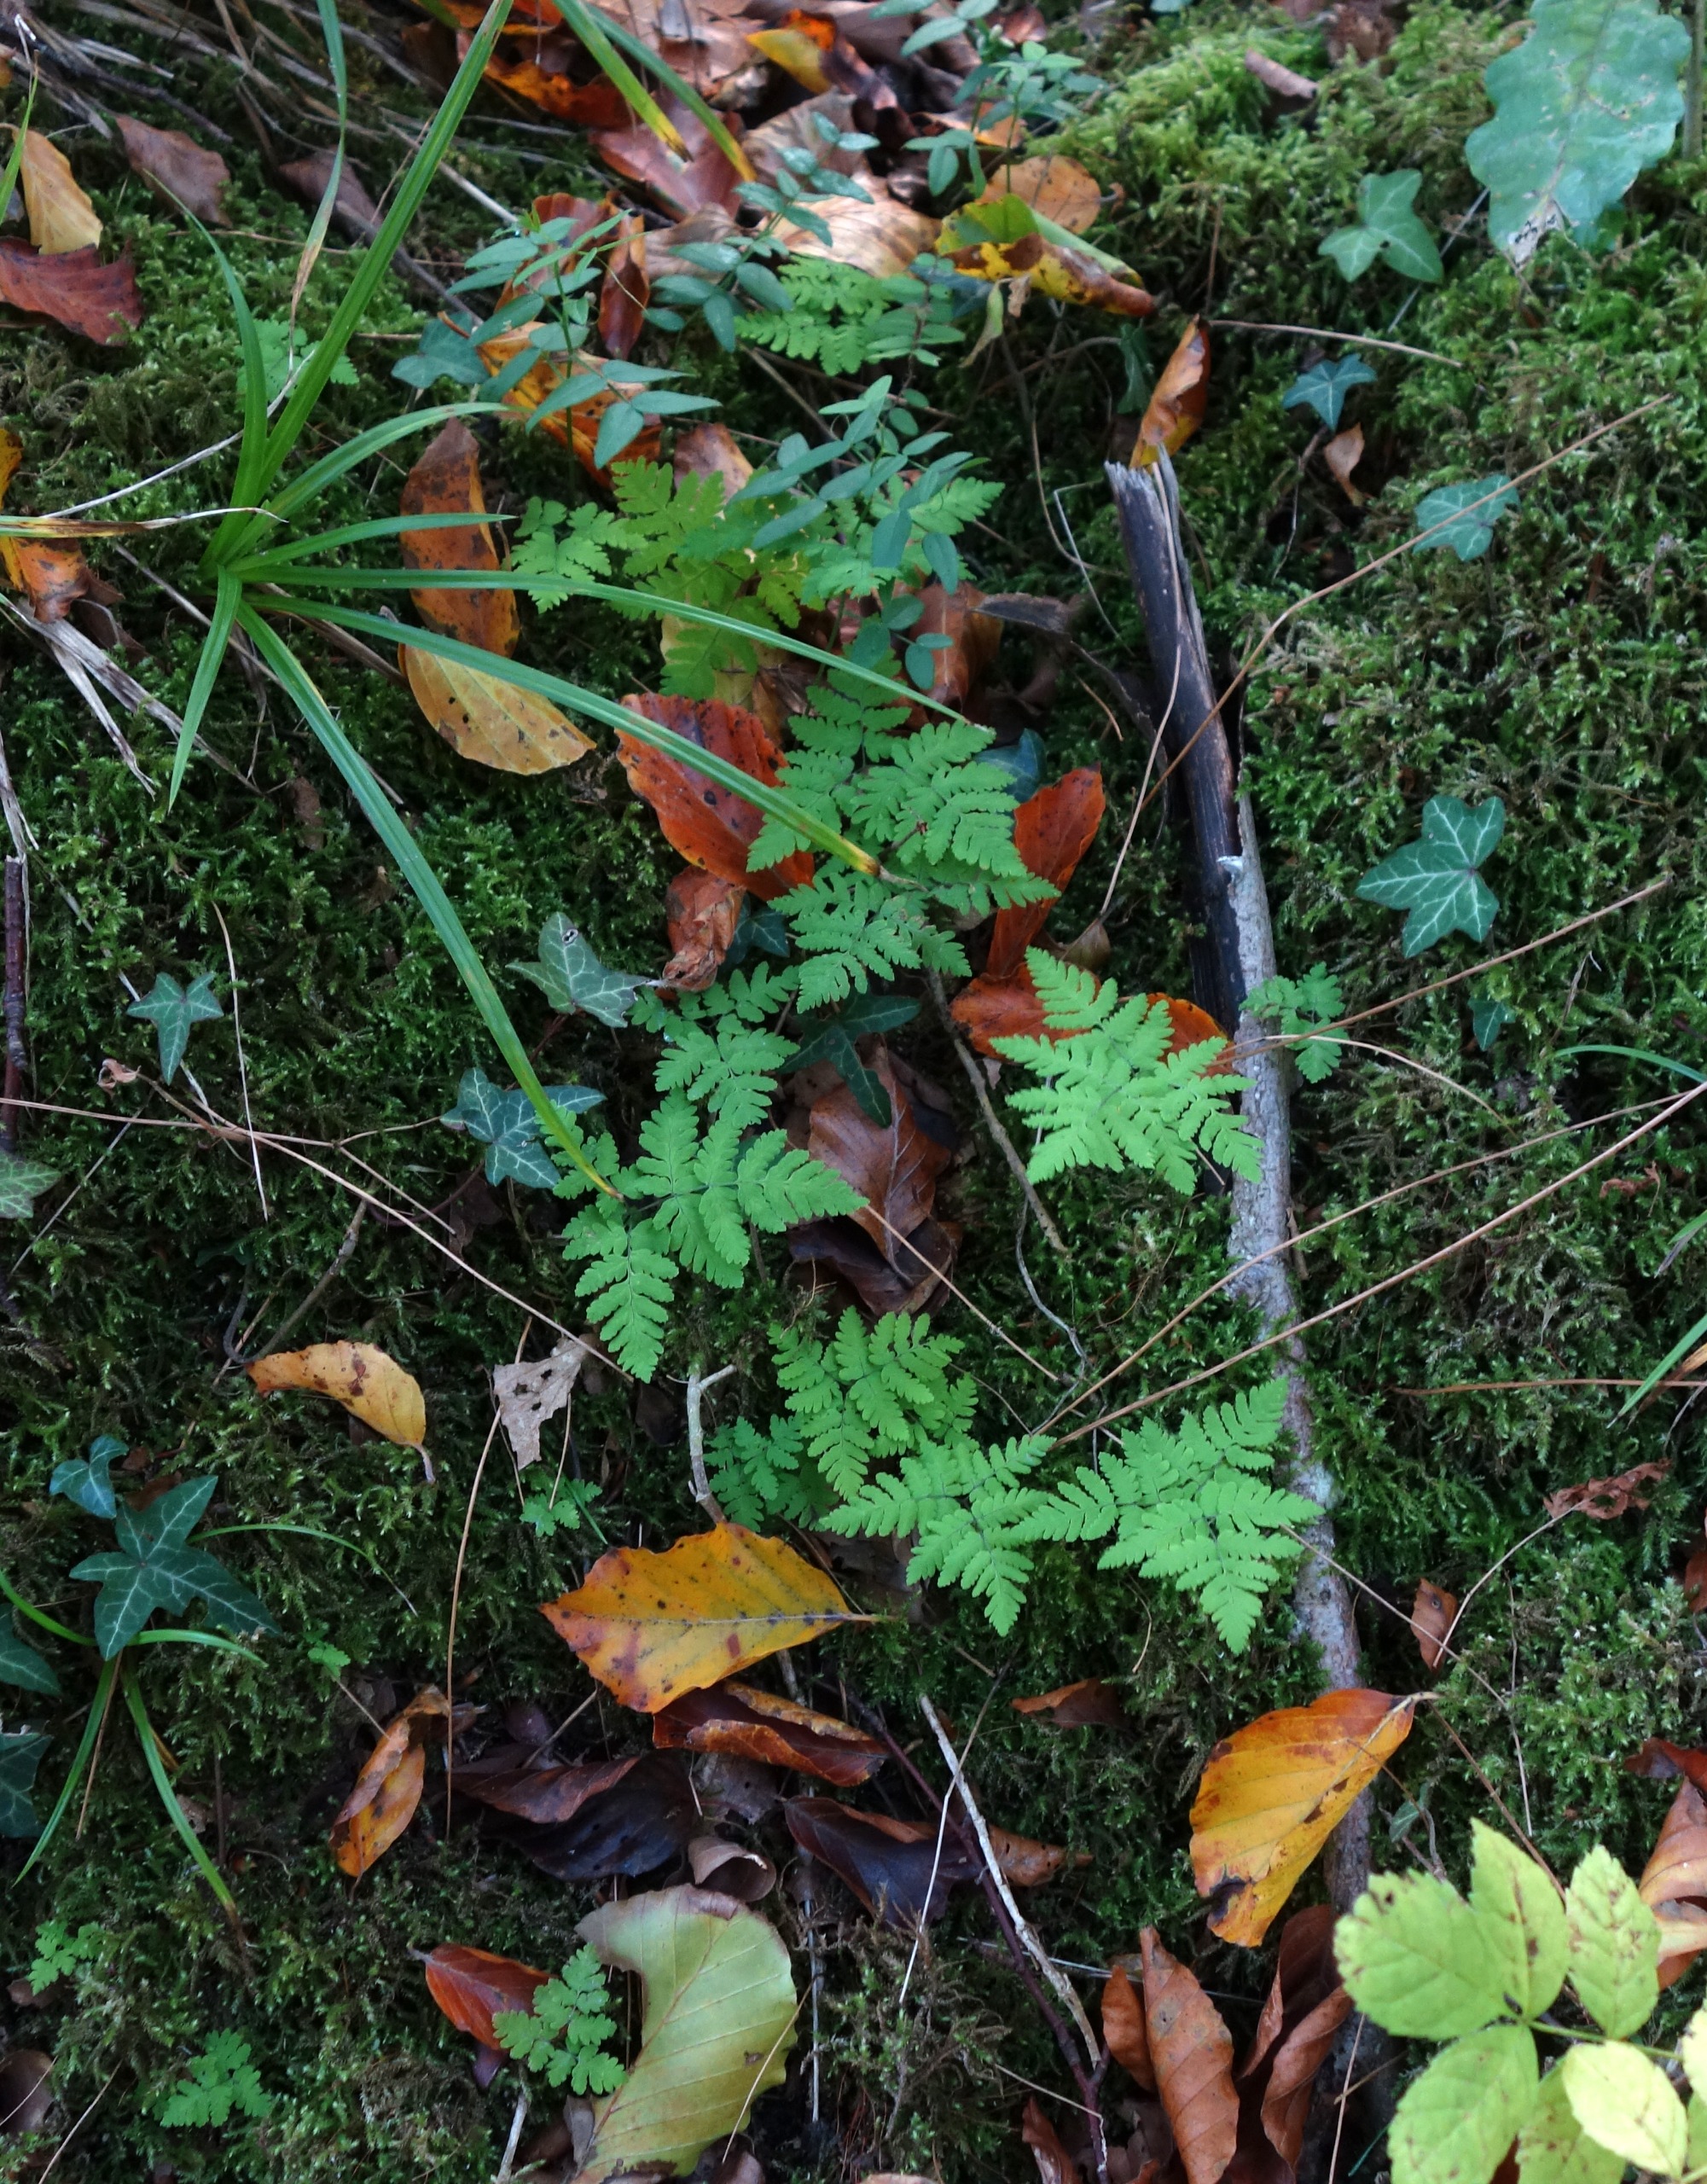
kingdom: Plantae
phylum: Tracheophyta
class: Polypodiopsida
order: Polypodiales
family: Cystopteridaceae
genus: Gymnocarpium
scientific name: Gymnocarpium dryopteris
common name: Tredelt egebregne
